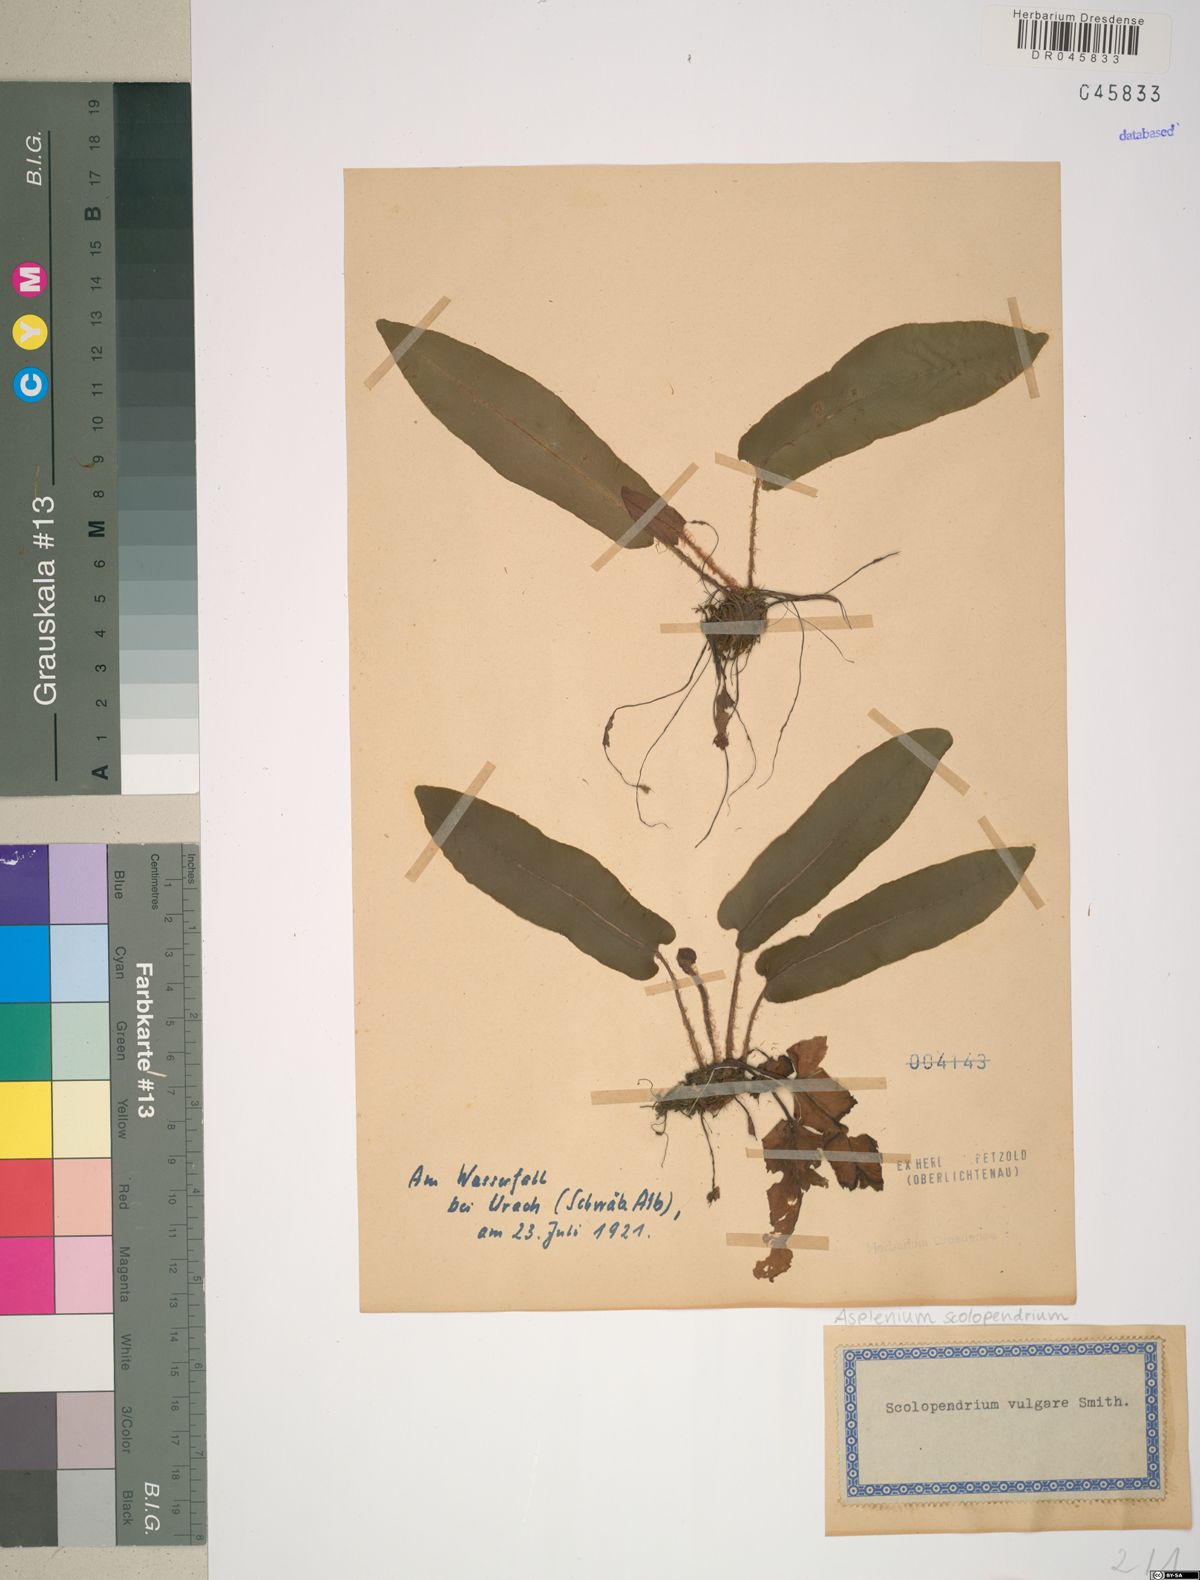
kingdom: Plantae
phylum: Tracheophyta
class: Polypodiopsida
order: Polypodiales
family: Aspleniaceae
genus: Asplenium
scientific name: Asplenium scolopendrium
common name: Hart's-tongue fern
